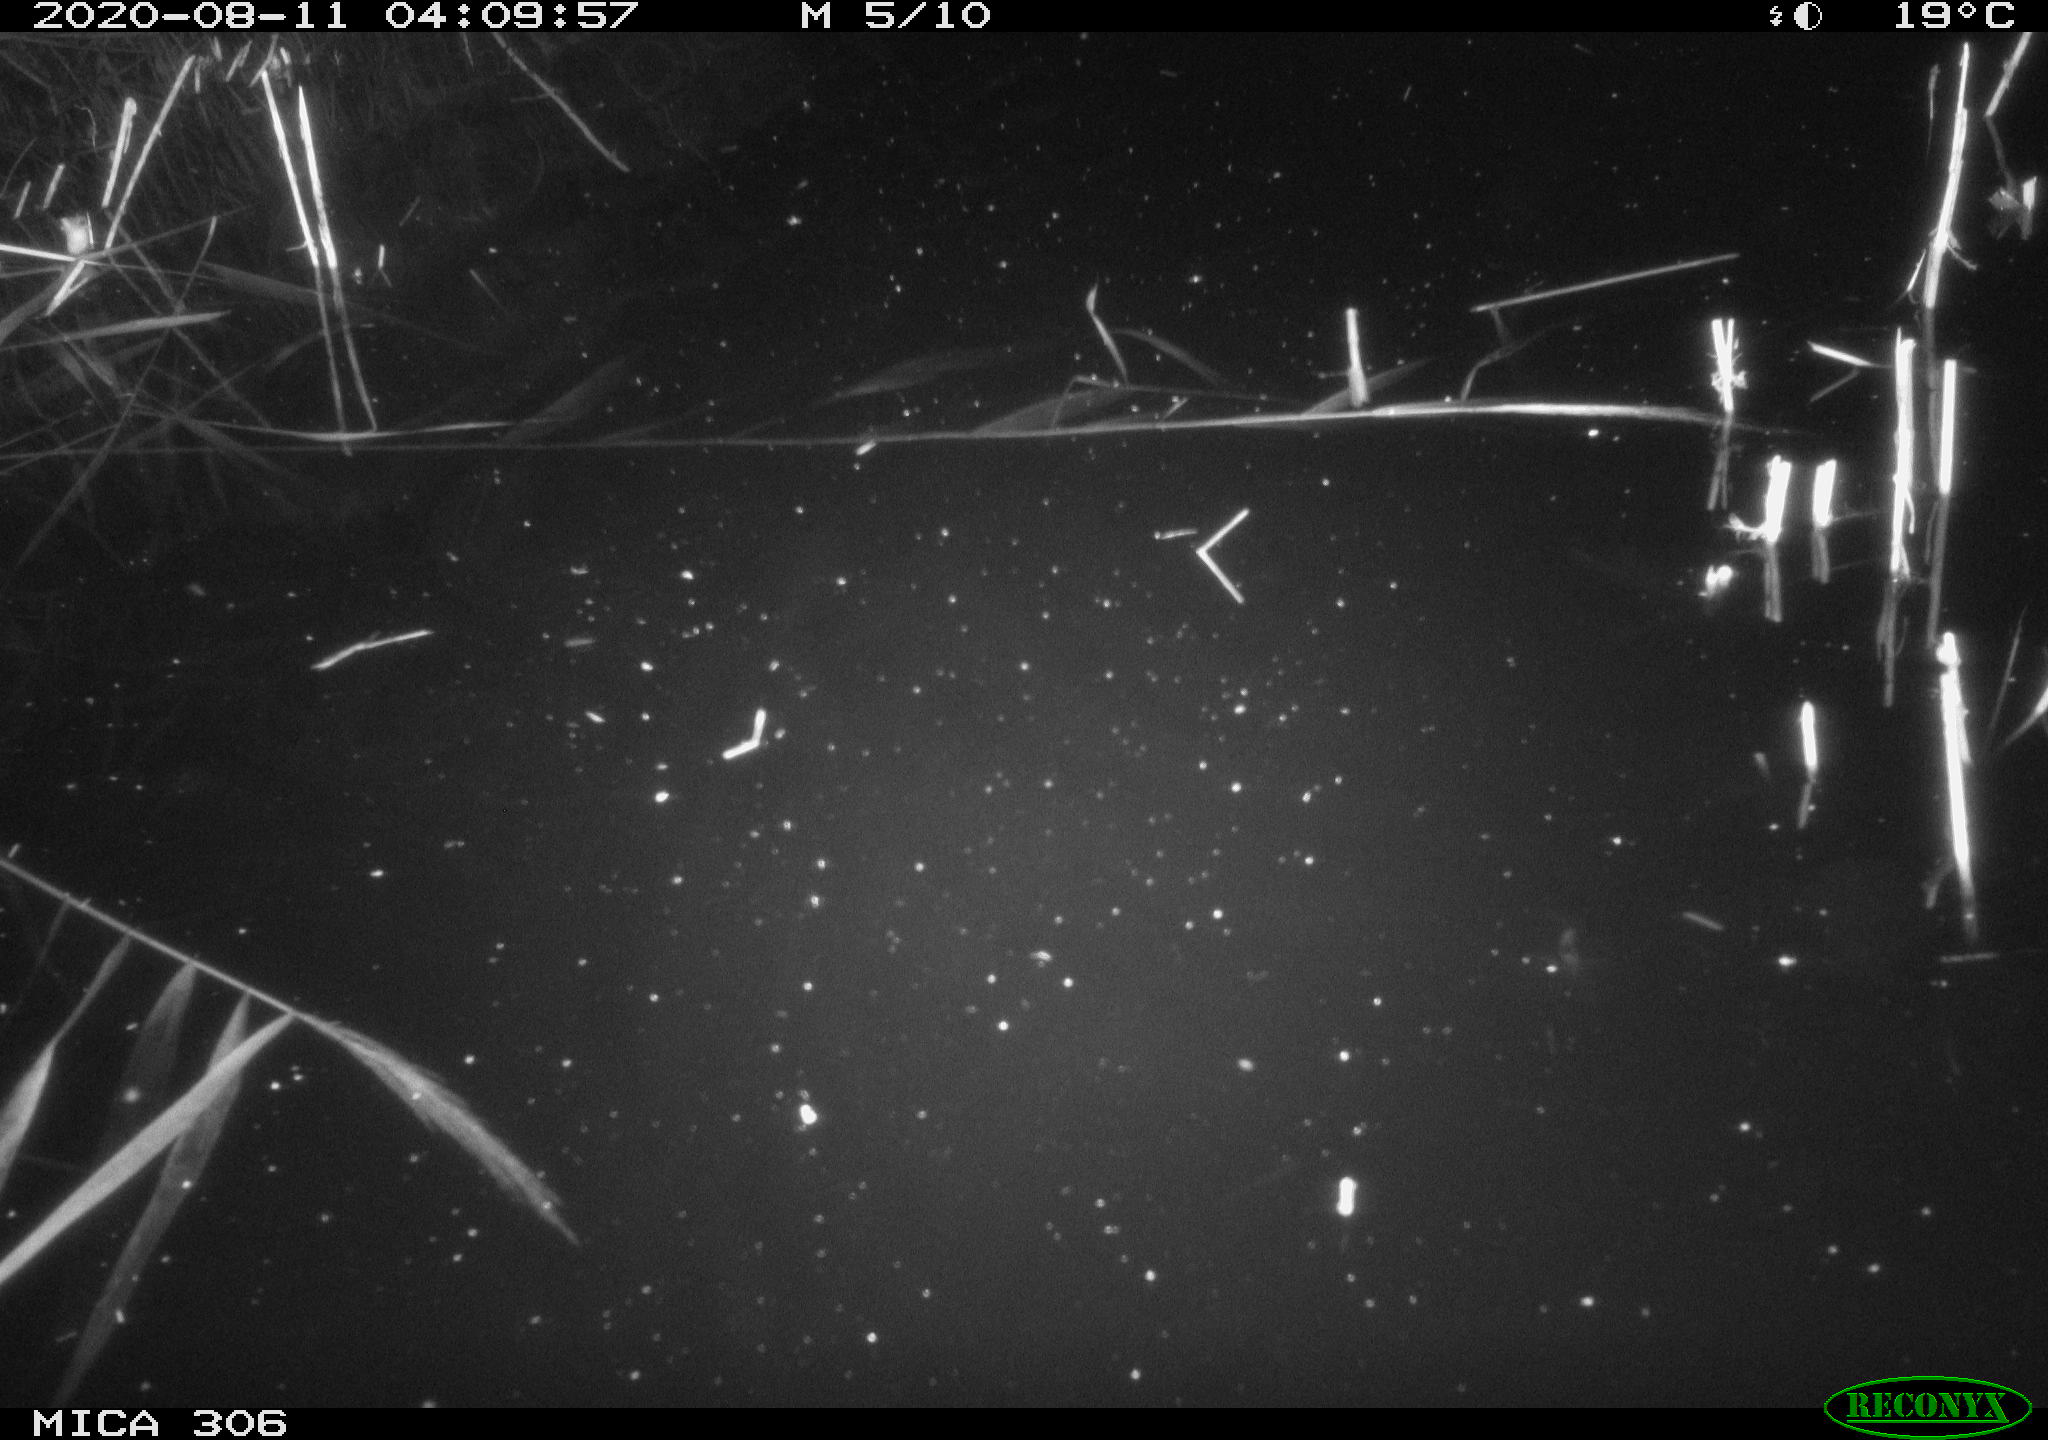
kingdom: Animalia
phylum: Chordata
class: Mammalia
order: Rodentia
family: Muridae
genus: Rattus
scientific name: Rattus norvegicus
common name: Brown rat
